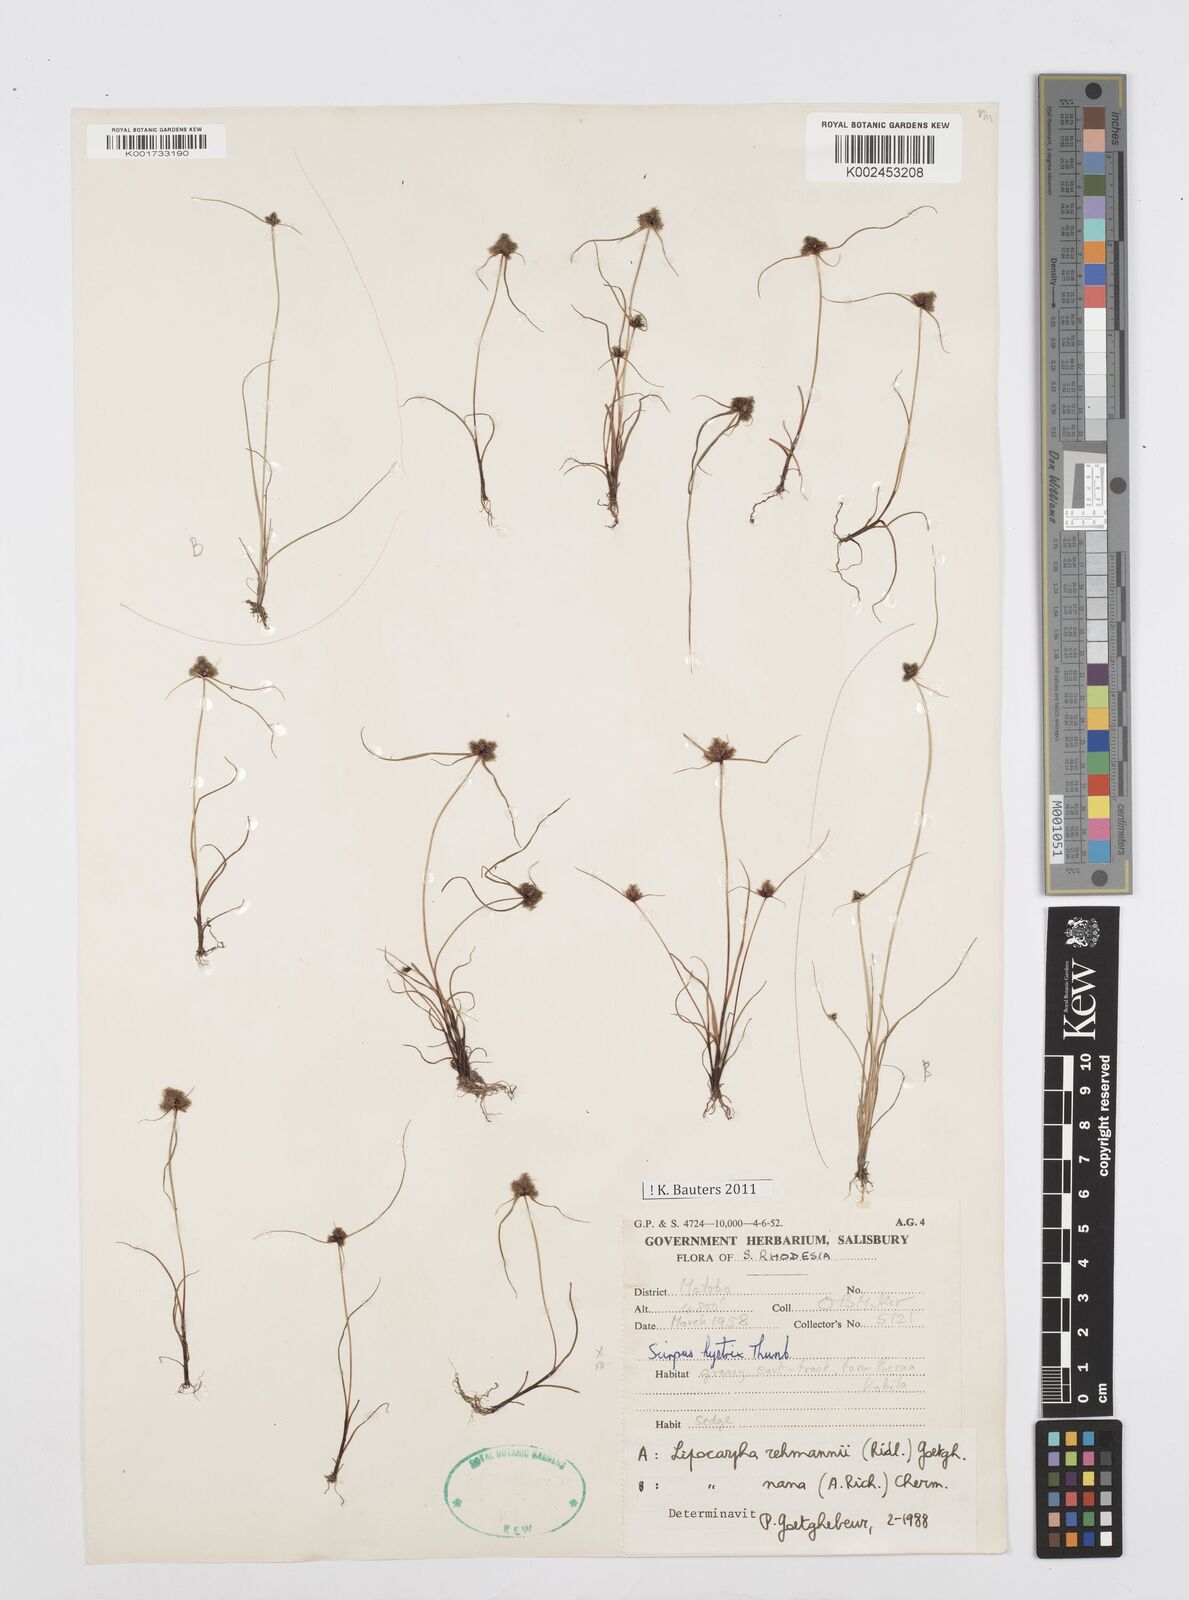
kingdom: Plantae
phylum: Tracheophyta
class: Liliopsida
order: Poales
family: Cyperaceae
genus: Cyperus
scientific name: Cyperus sanguinolentus
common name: Purpleglume flatsedge
